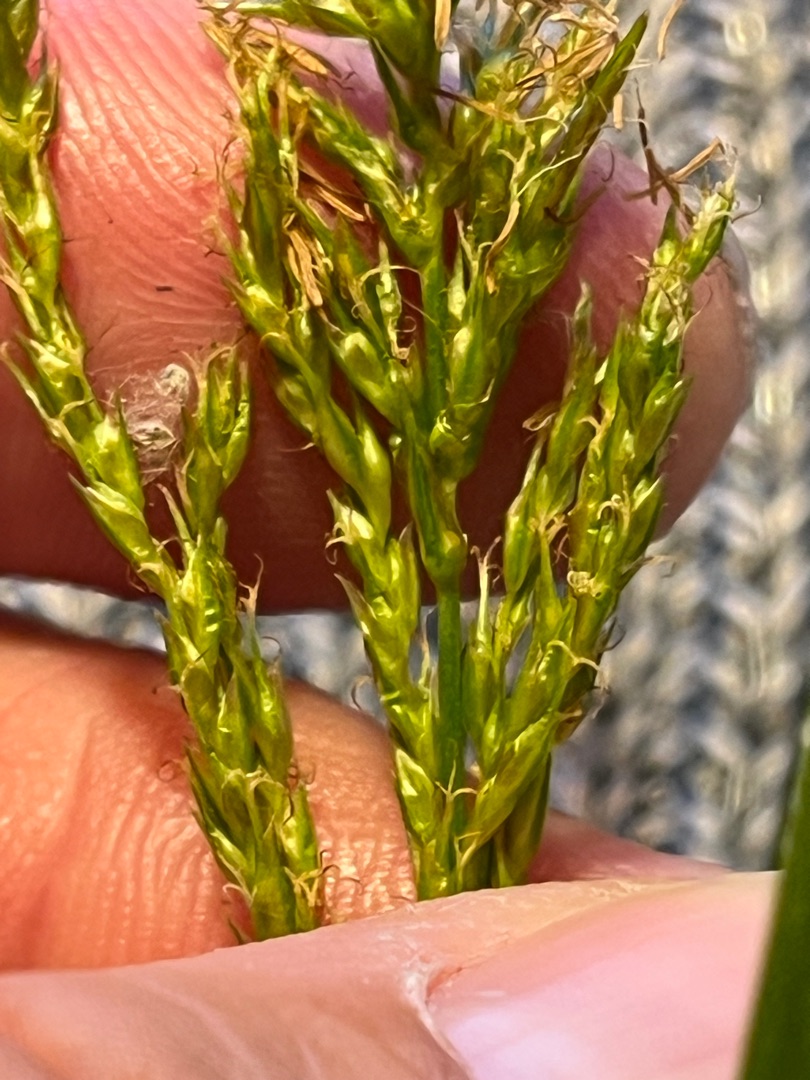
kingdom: Plantae
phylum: Tracheophyta
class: Liliopsida
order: Poales
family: Cyperaceae
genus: Carex
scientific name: Carex sylvatica
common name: Skov-star
